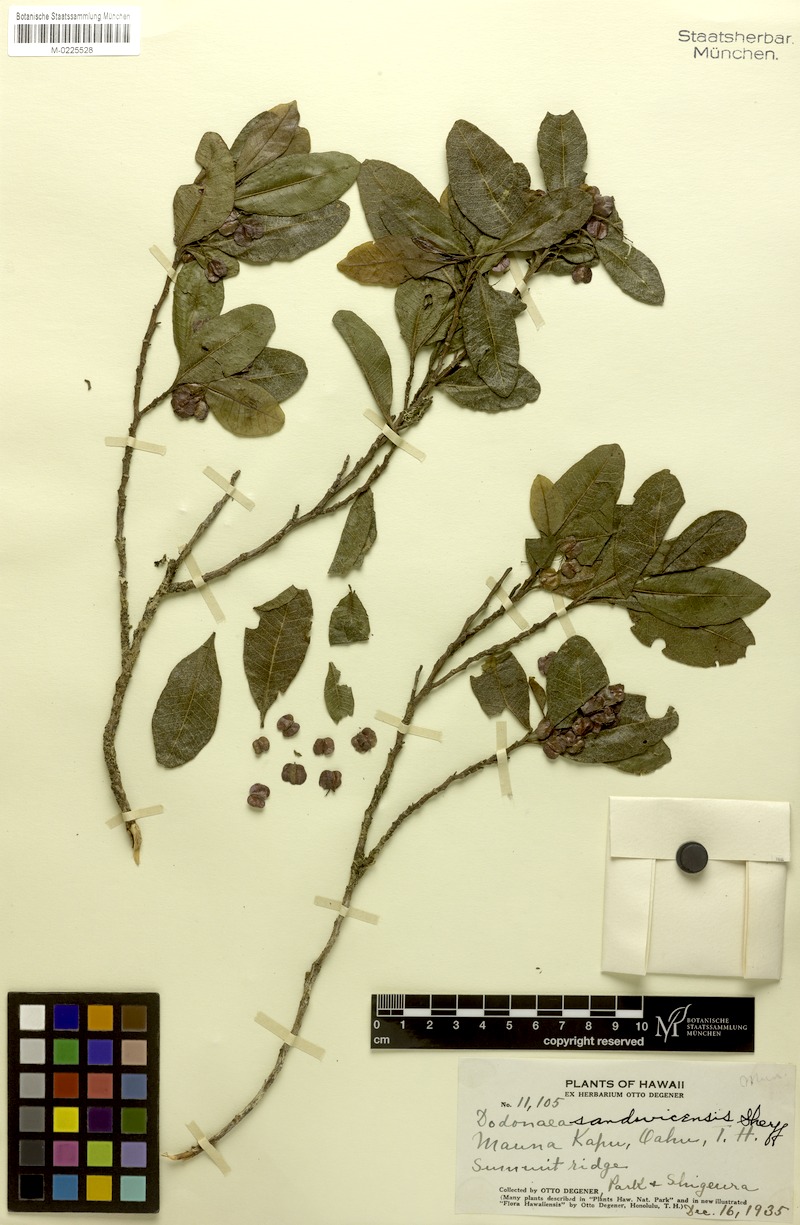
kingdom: Plantae
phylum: Tracheophyta
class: Magnoliopsida
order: Sapindales
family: Sapindaceae
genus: Dodonaea
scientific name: Dodonaea viscosa
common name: Hopbush
